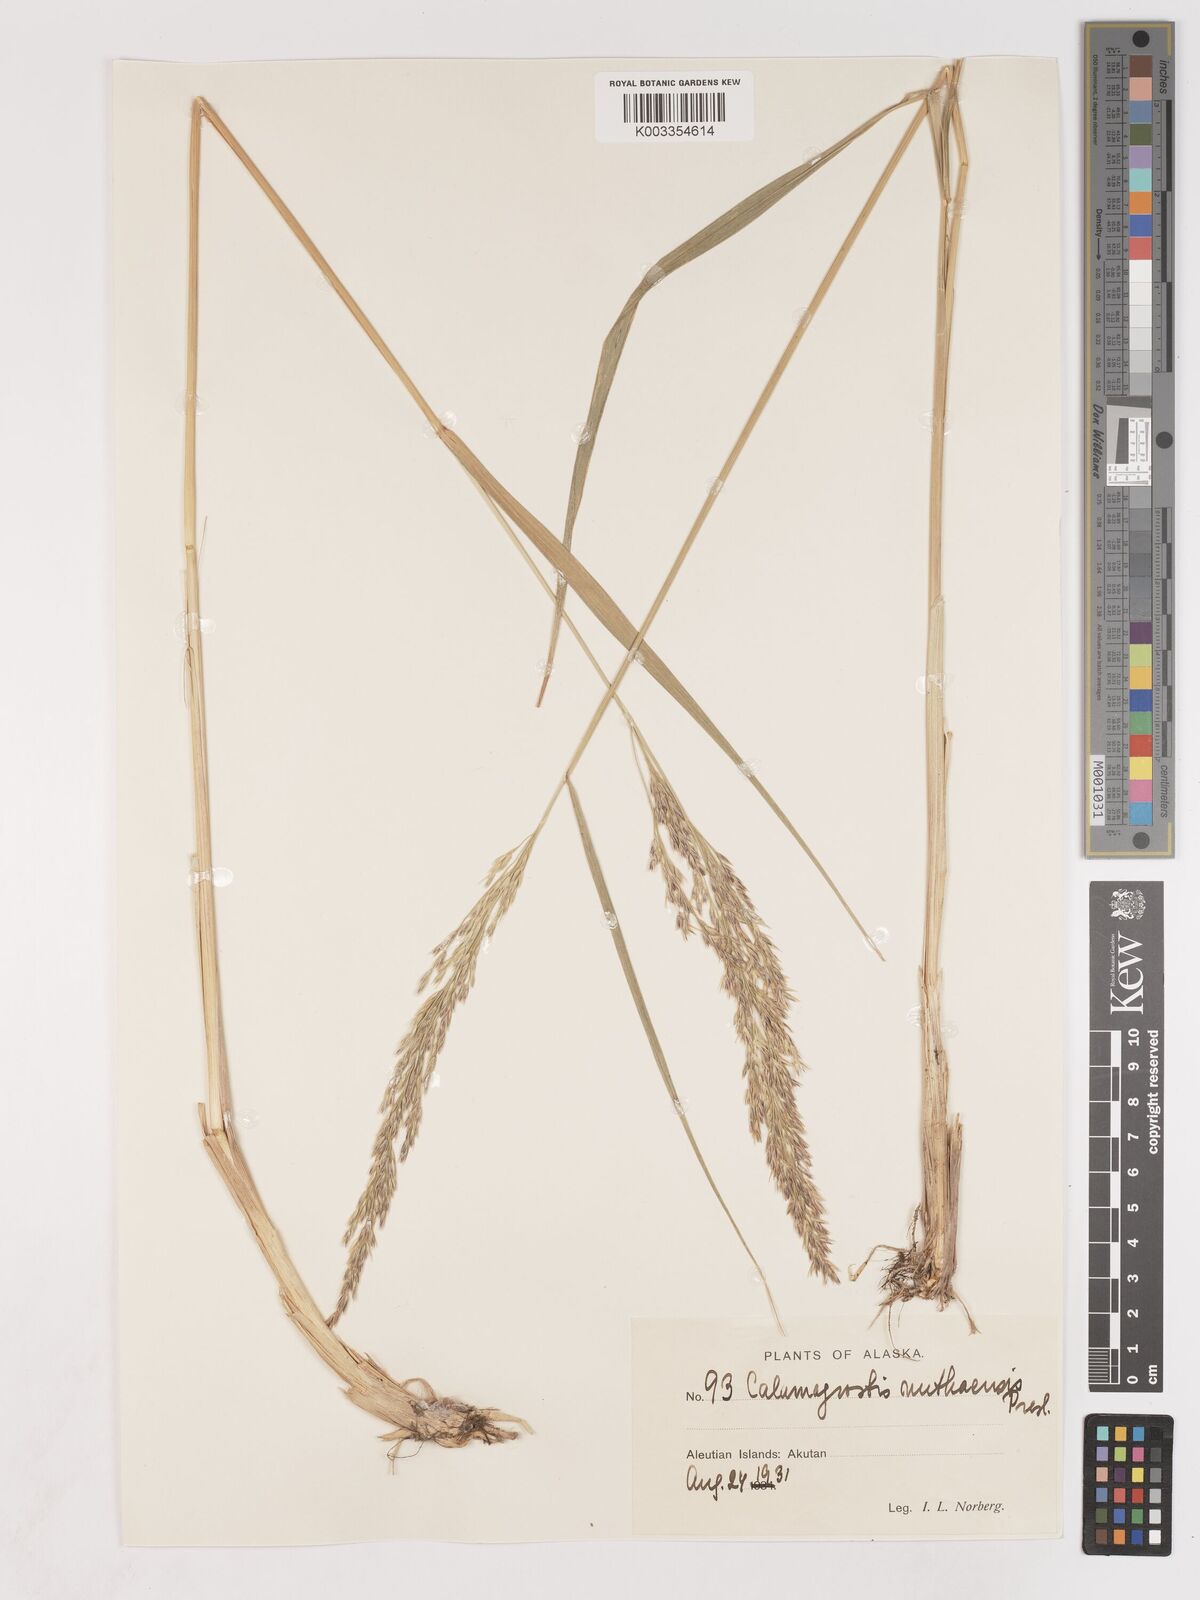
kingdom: Plantae
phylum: Tracheophyta
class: Liliopsida
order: Poales
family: Poaceae
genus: Calamagrostis
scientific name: Calamagrostis nutkaensis
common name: Pacific reed grass
